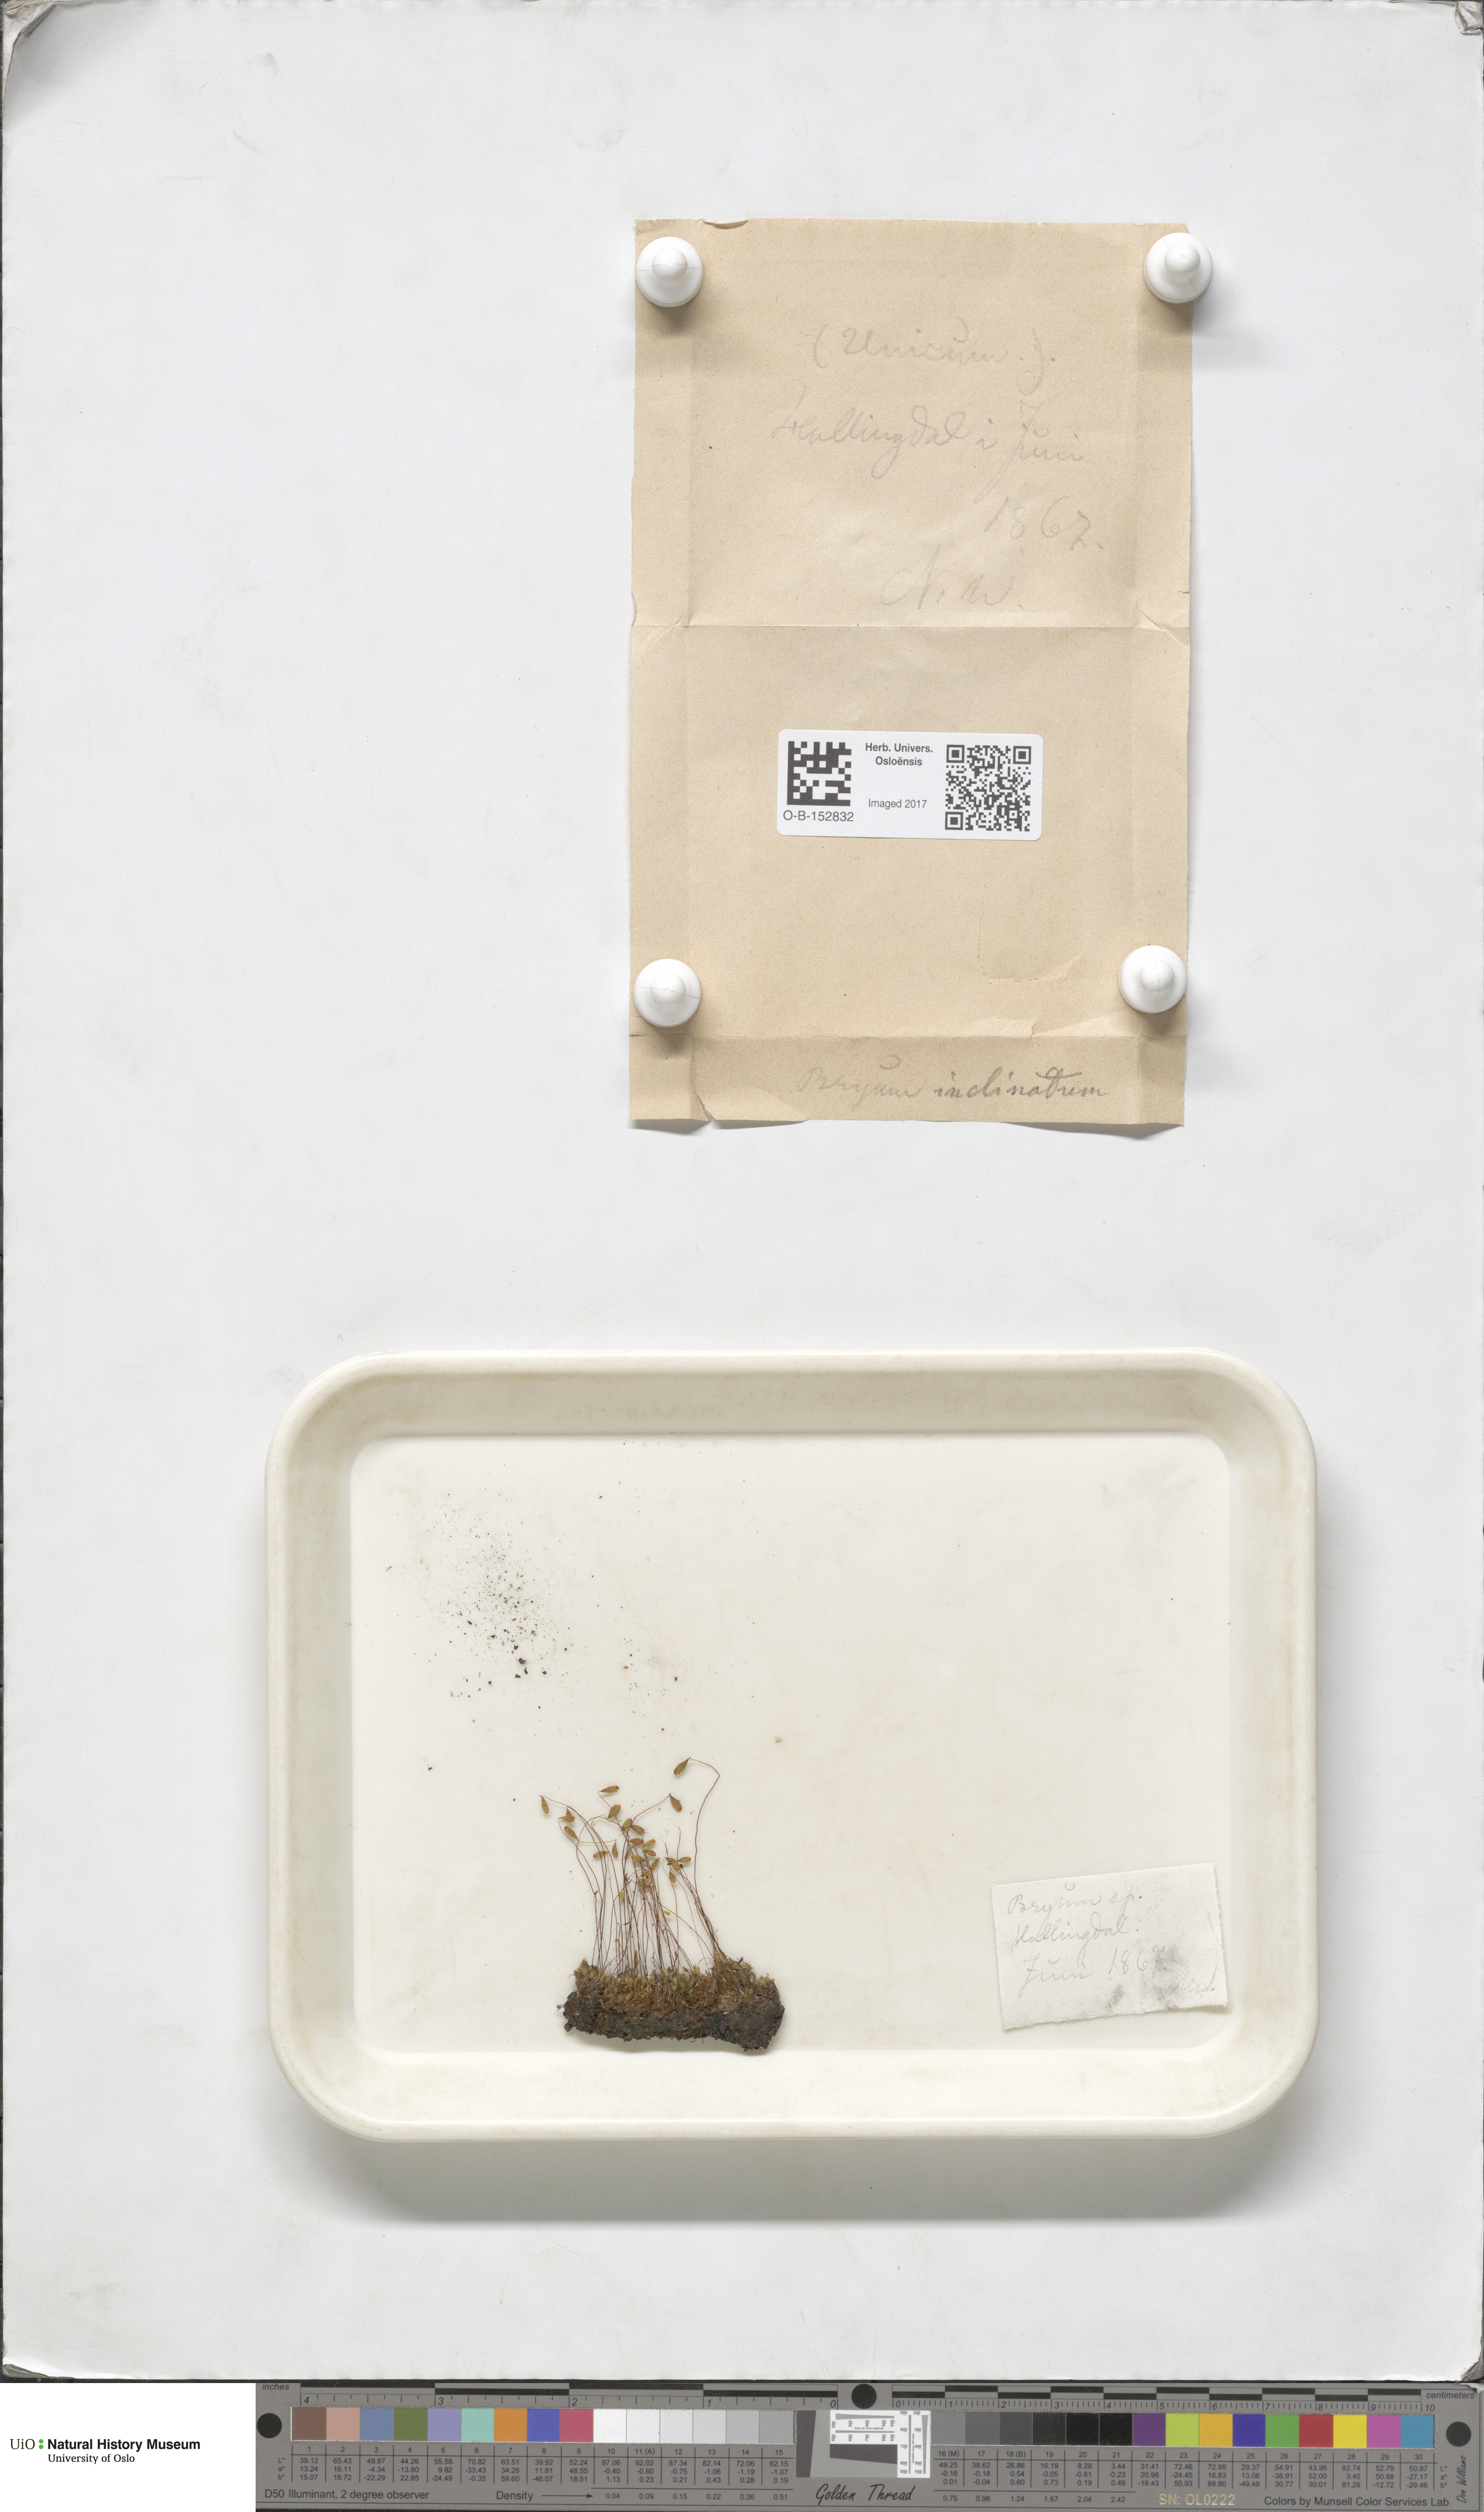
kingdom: Plantae
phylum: Bryophyta
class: Bryopsida
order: Bryales
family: Bryaceae
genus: Ptychostomum
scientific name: Ptychostomum inclinatum
